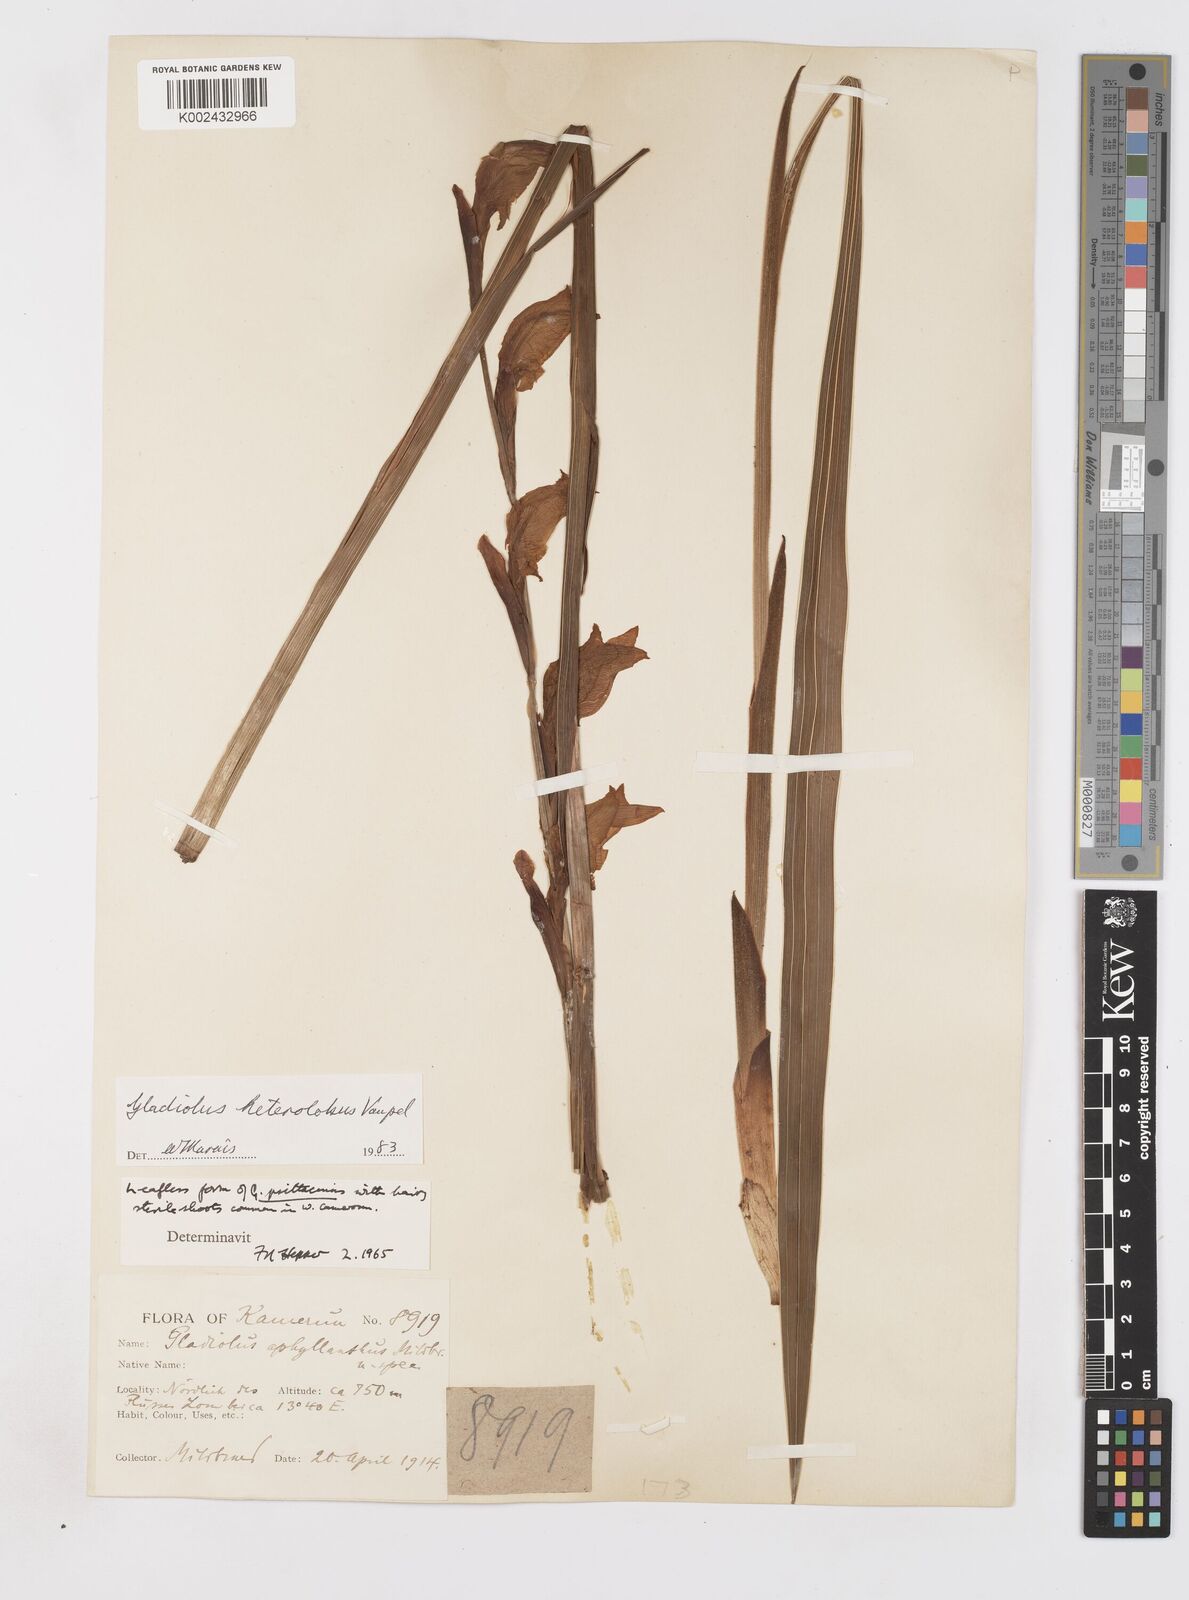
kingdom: Plantae
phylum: Tracheophyta
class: Liliopsida
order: Asparagales
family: Iridaceae
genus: Gladiolus
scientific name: Gladiolus roseolus
